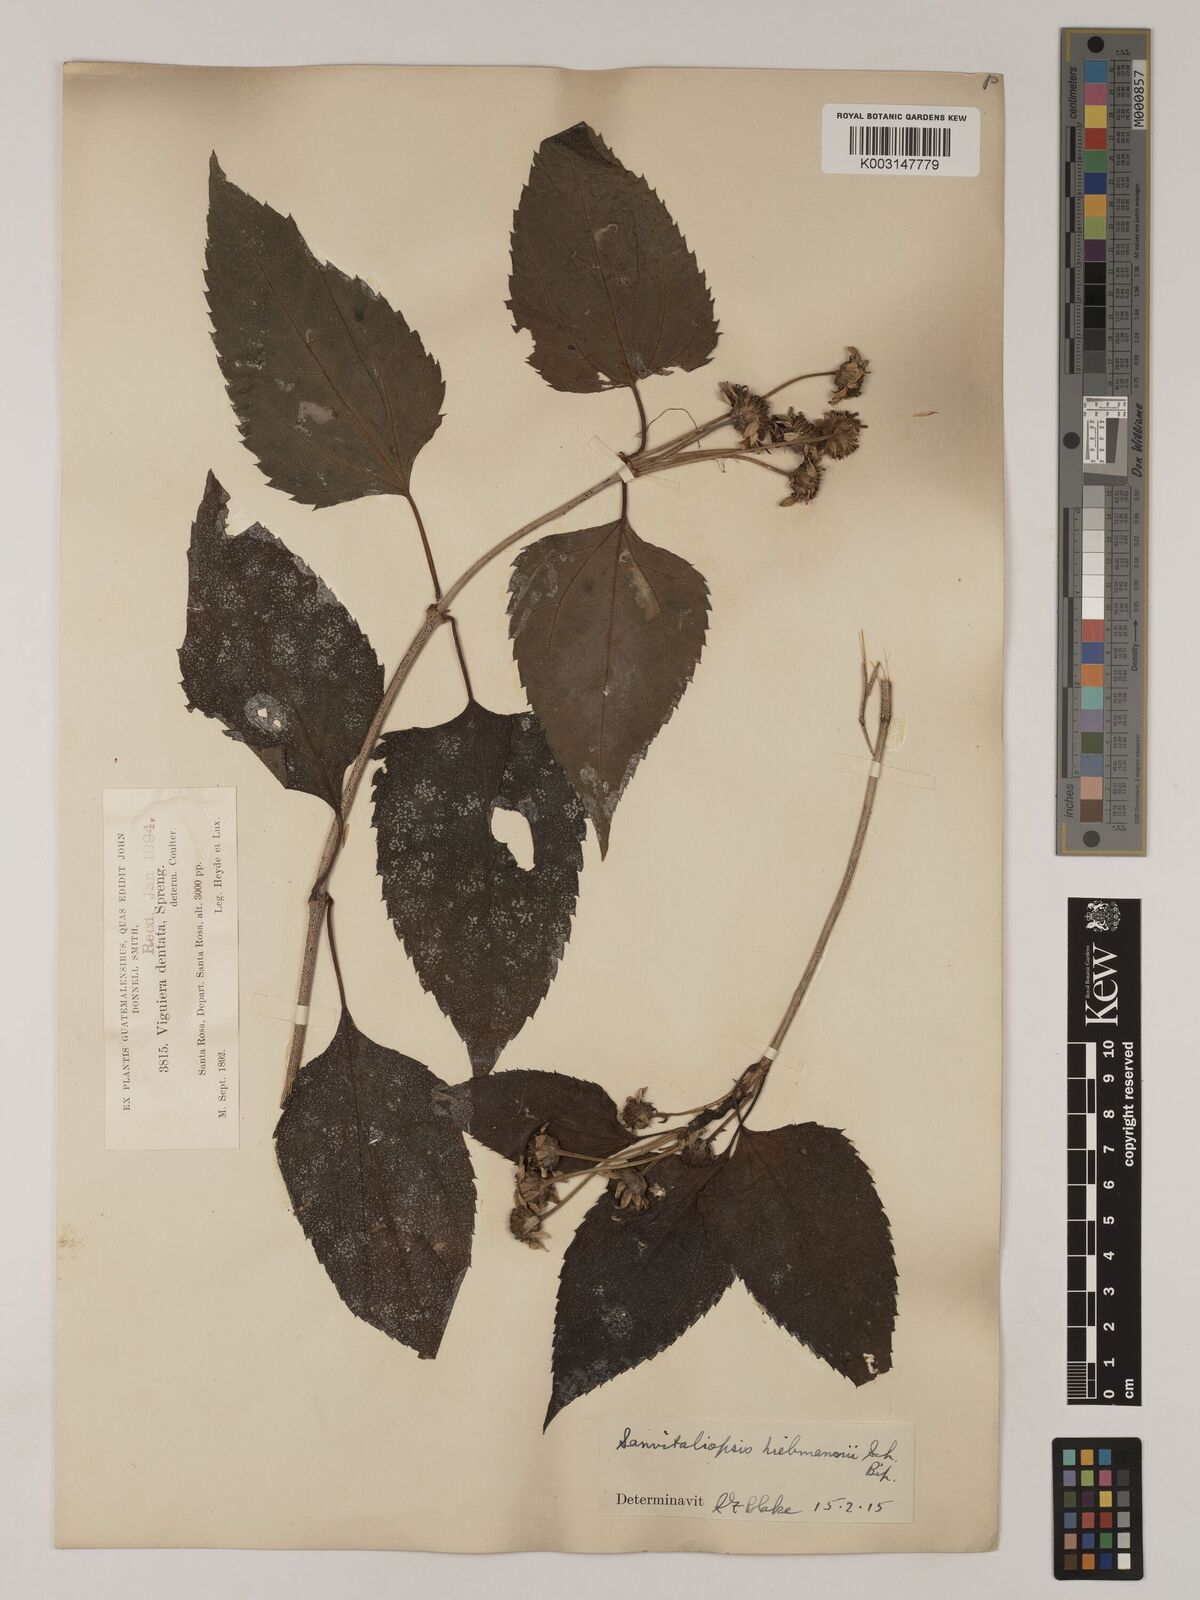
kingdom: Plantae
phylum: Tracheophyta
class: Magnoliopsida
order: Asterales
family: Asteraceae
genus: Philactis
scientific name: Philactis liebmannii
